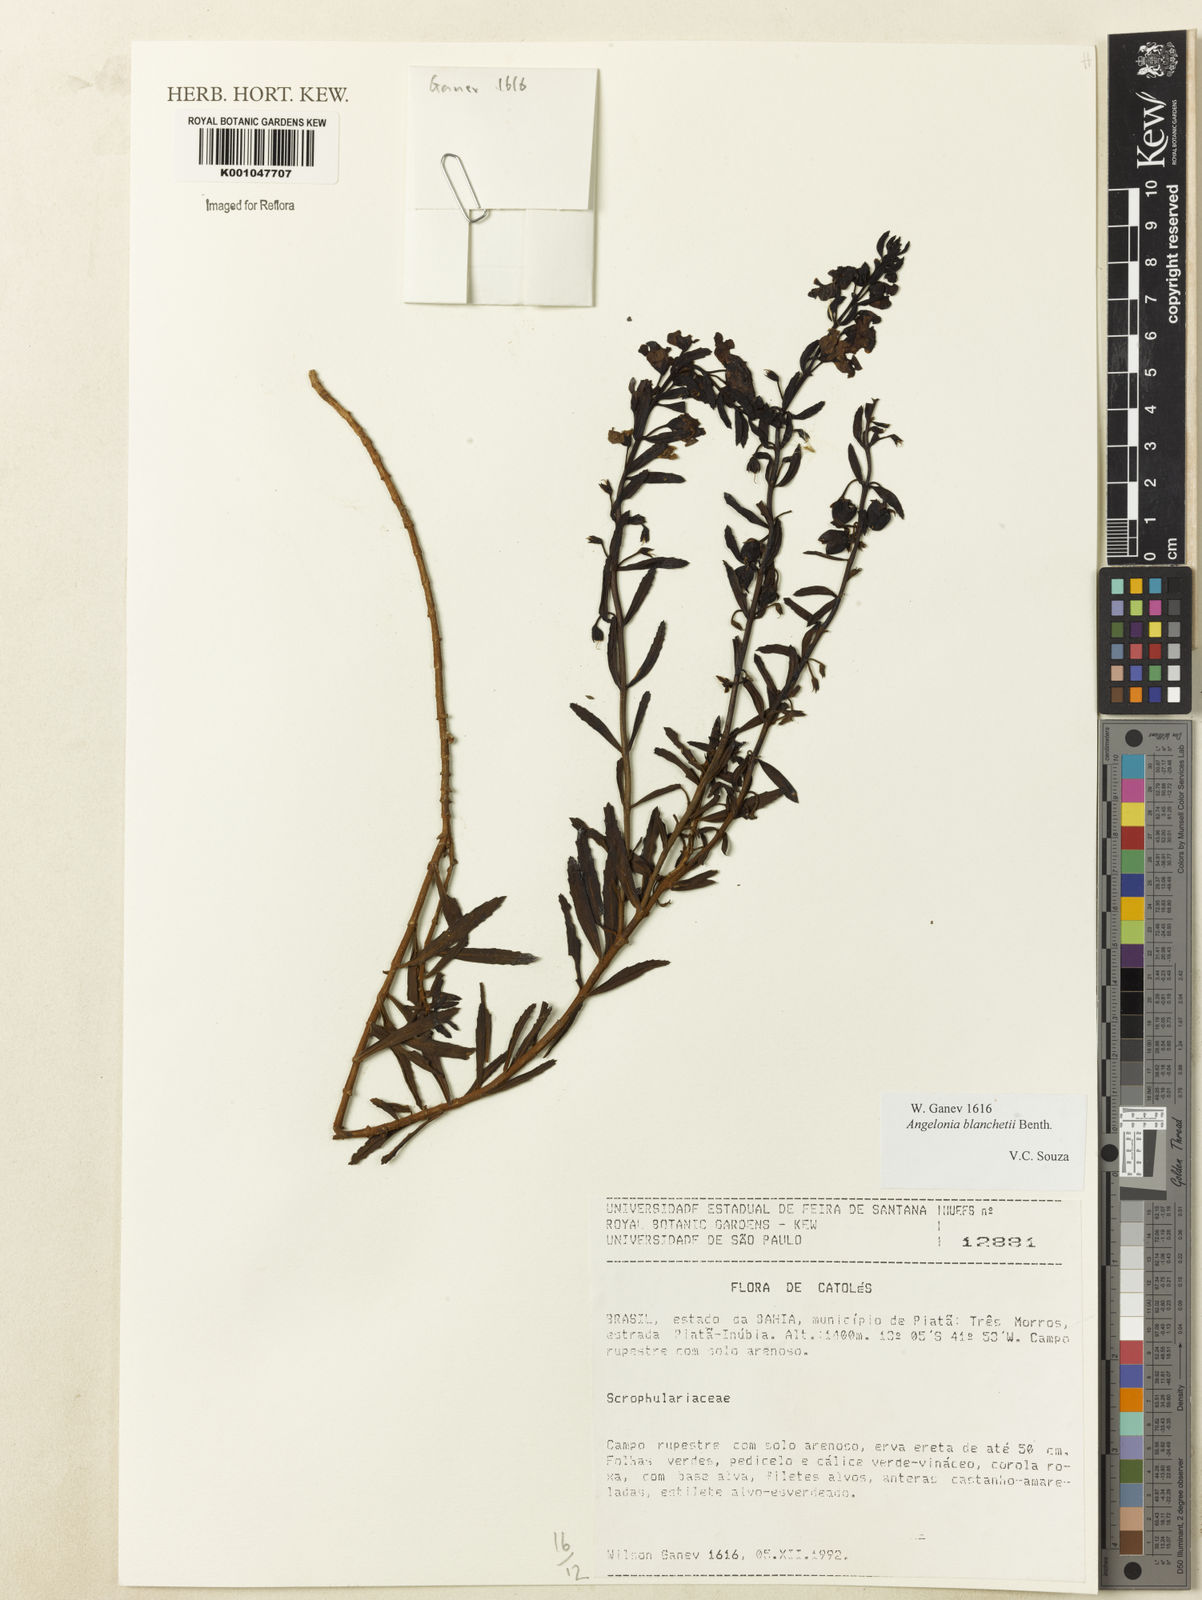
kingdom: Plantae
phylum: Tracheophyta
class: Magnoliopsida
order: Lamiales
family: Plantaginaceae
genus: Angelonia
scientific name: Angelonia blanchetii
